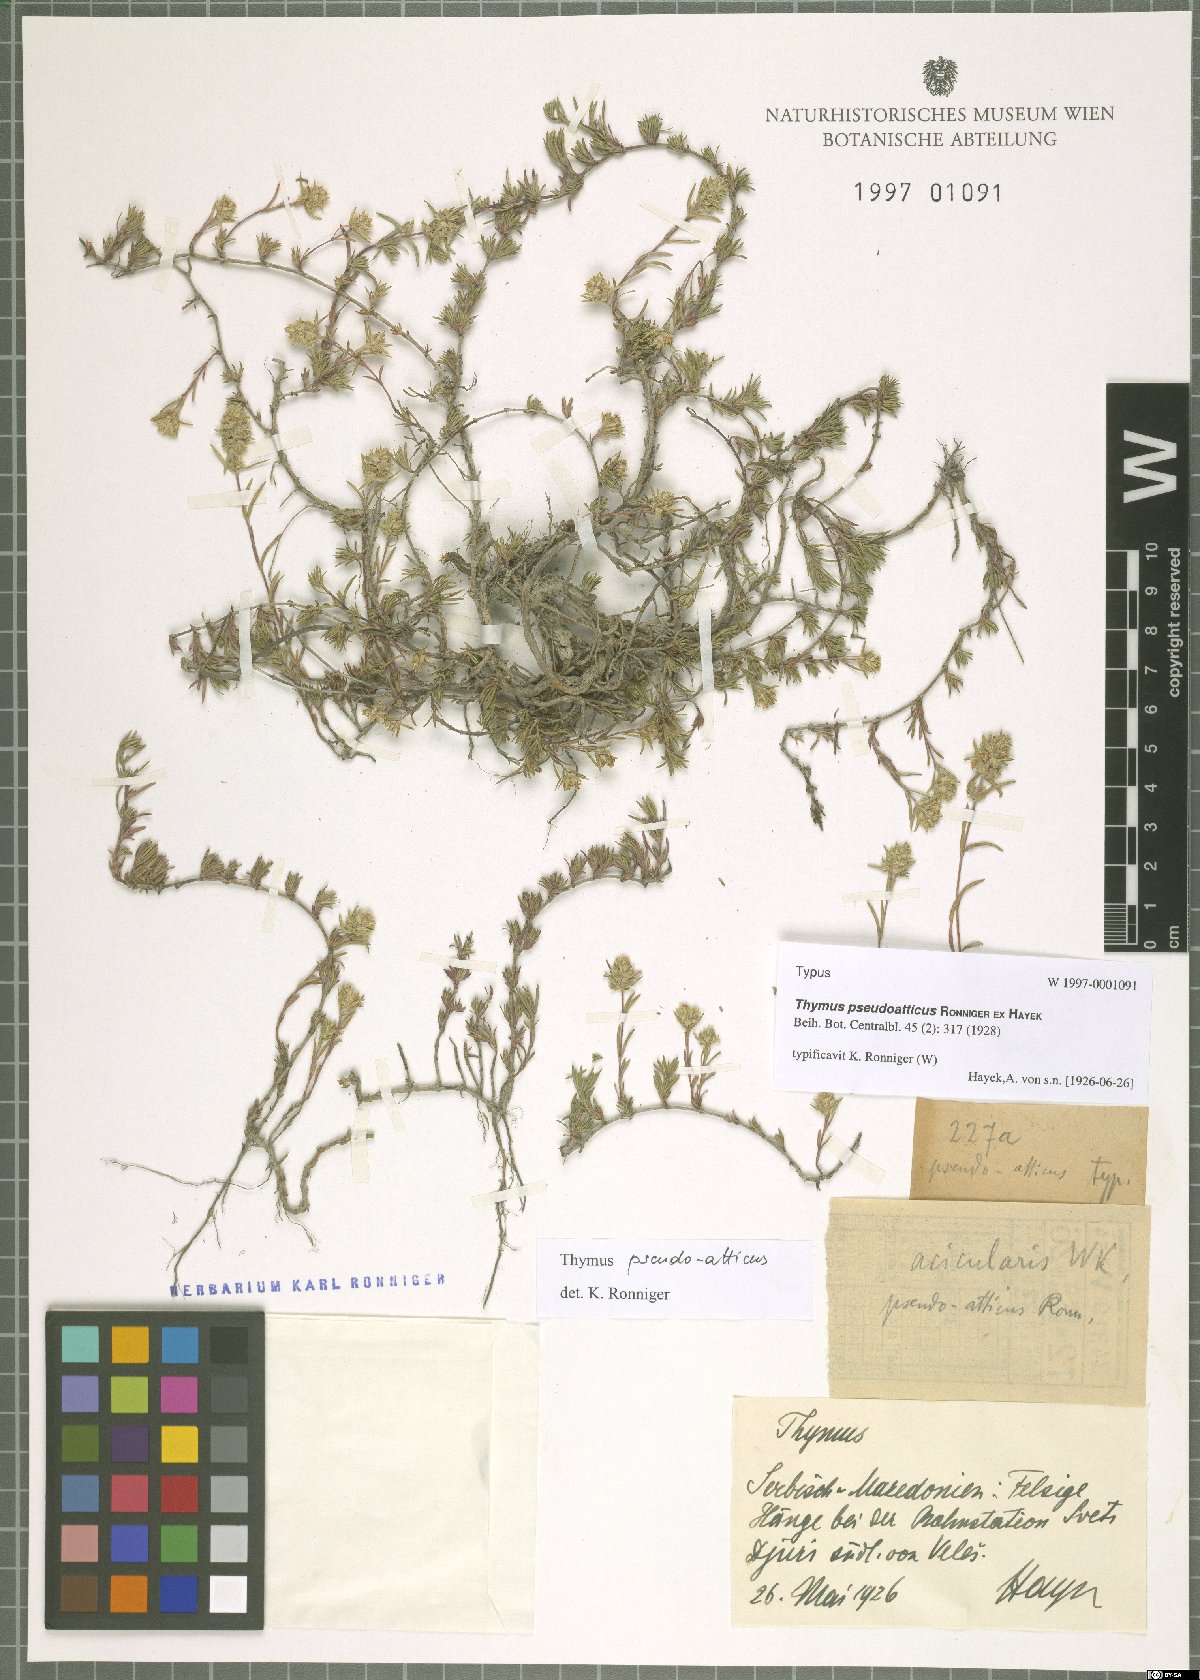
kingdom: Plantae
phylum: Tracheophyta
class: Magnoliopsida
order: Lamiales
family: Lamiaceae
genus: Thymus
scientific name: Thymus striatus
